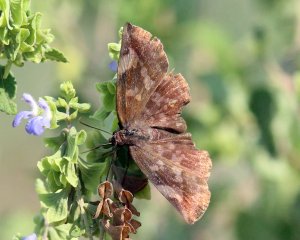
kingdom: Animalia
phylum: Arthropoda
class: Insecta
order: Lepidoptera
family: Hesperiidae
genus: Achlyodes
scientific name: Achlyodes thraso
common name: Sickle-winged Skipper
